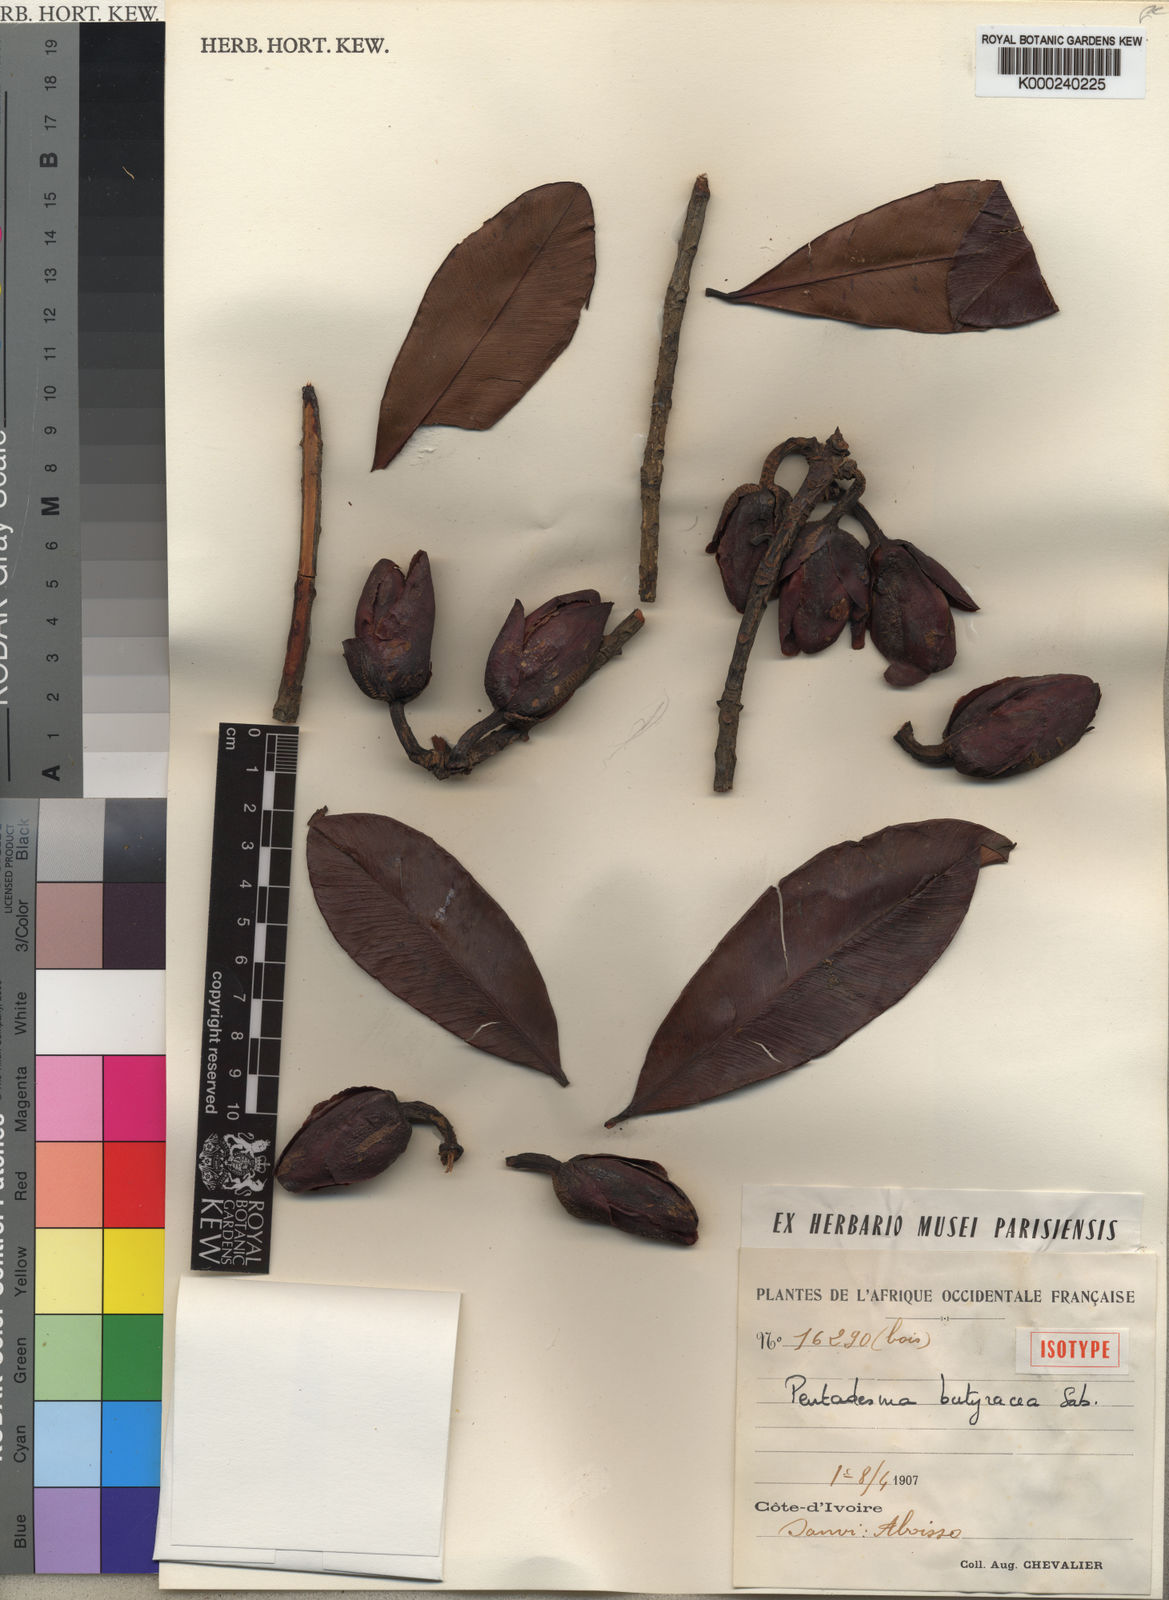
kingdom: Plantae
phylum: Tracheophyta
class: Magnoliopsida
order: Malpighiales
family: Clusiaceae
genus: Pentadesma
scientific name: Pentadesma butyracea
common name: Buttertree
